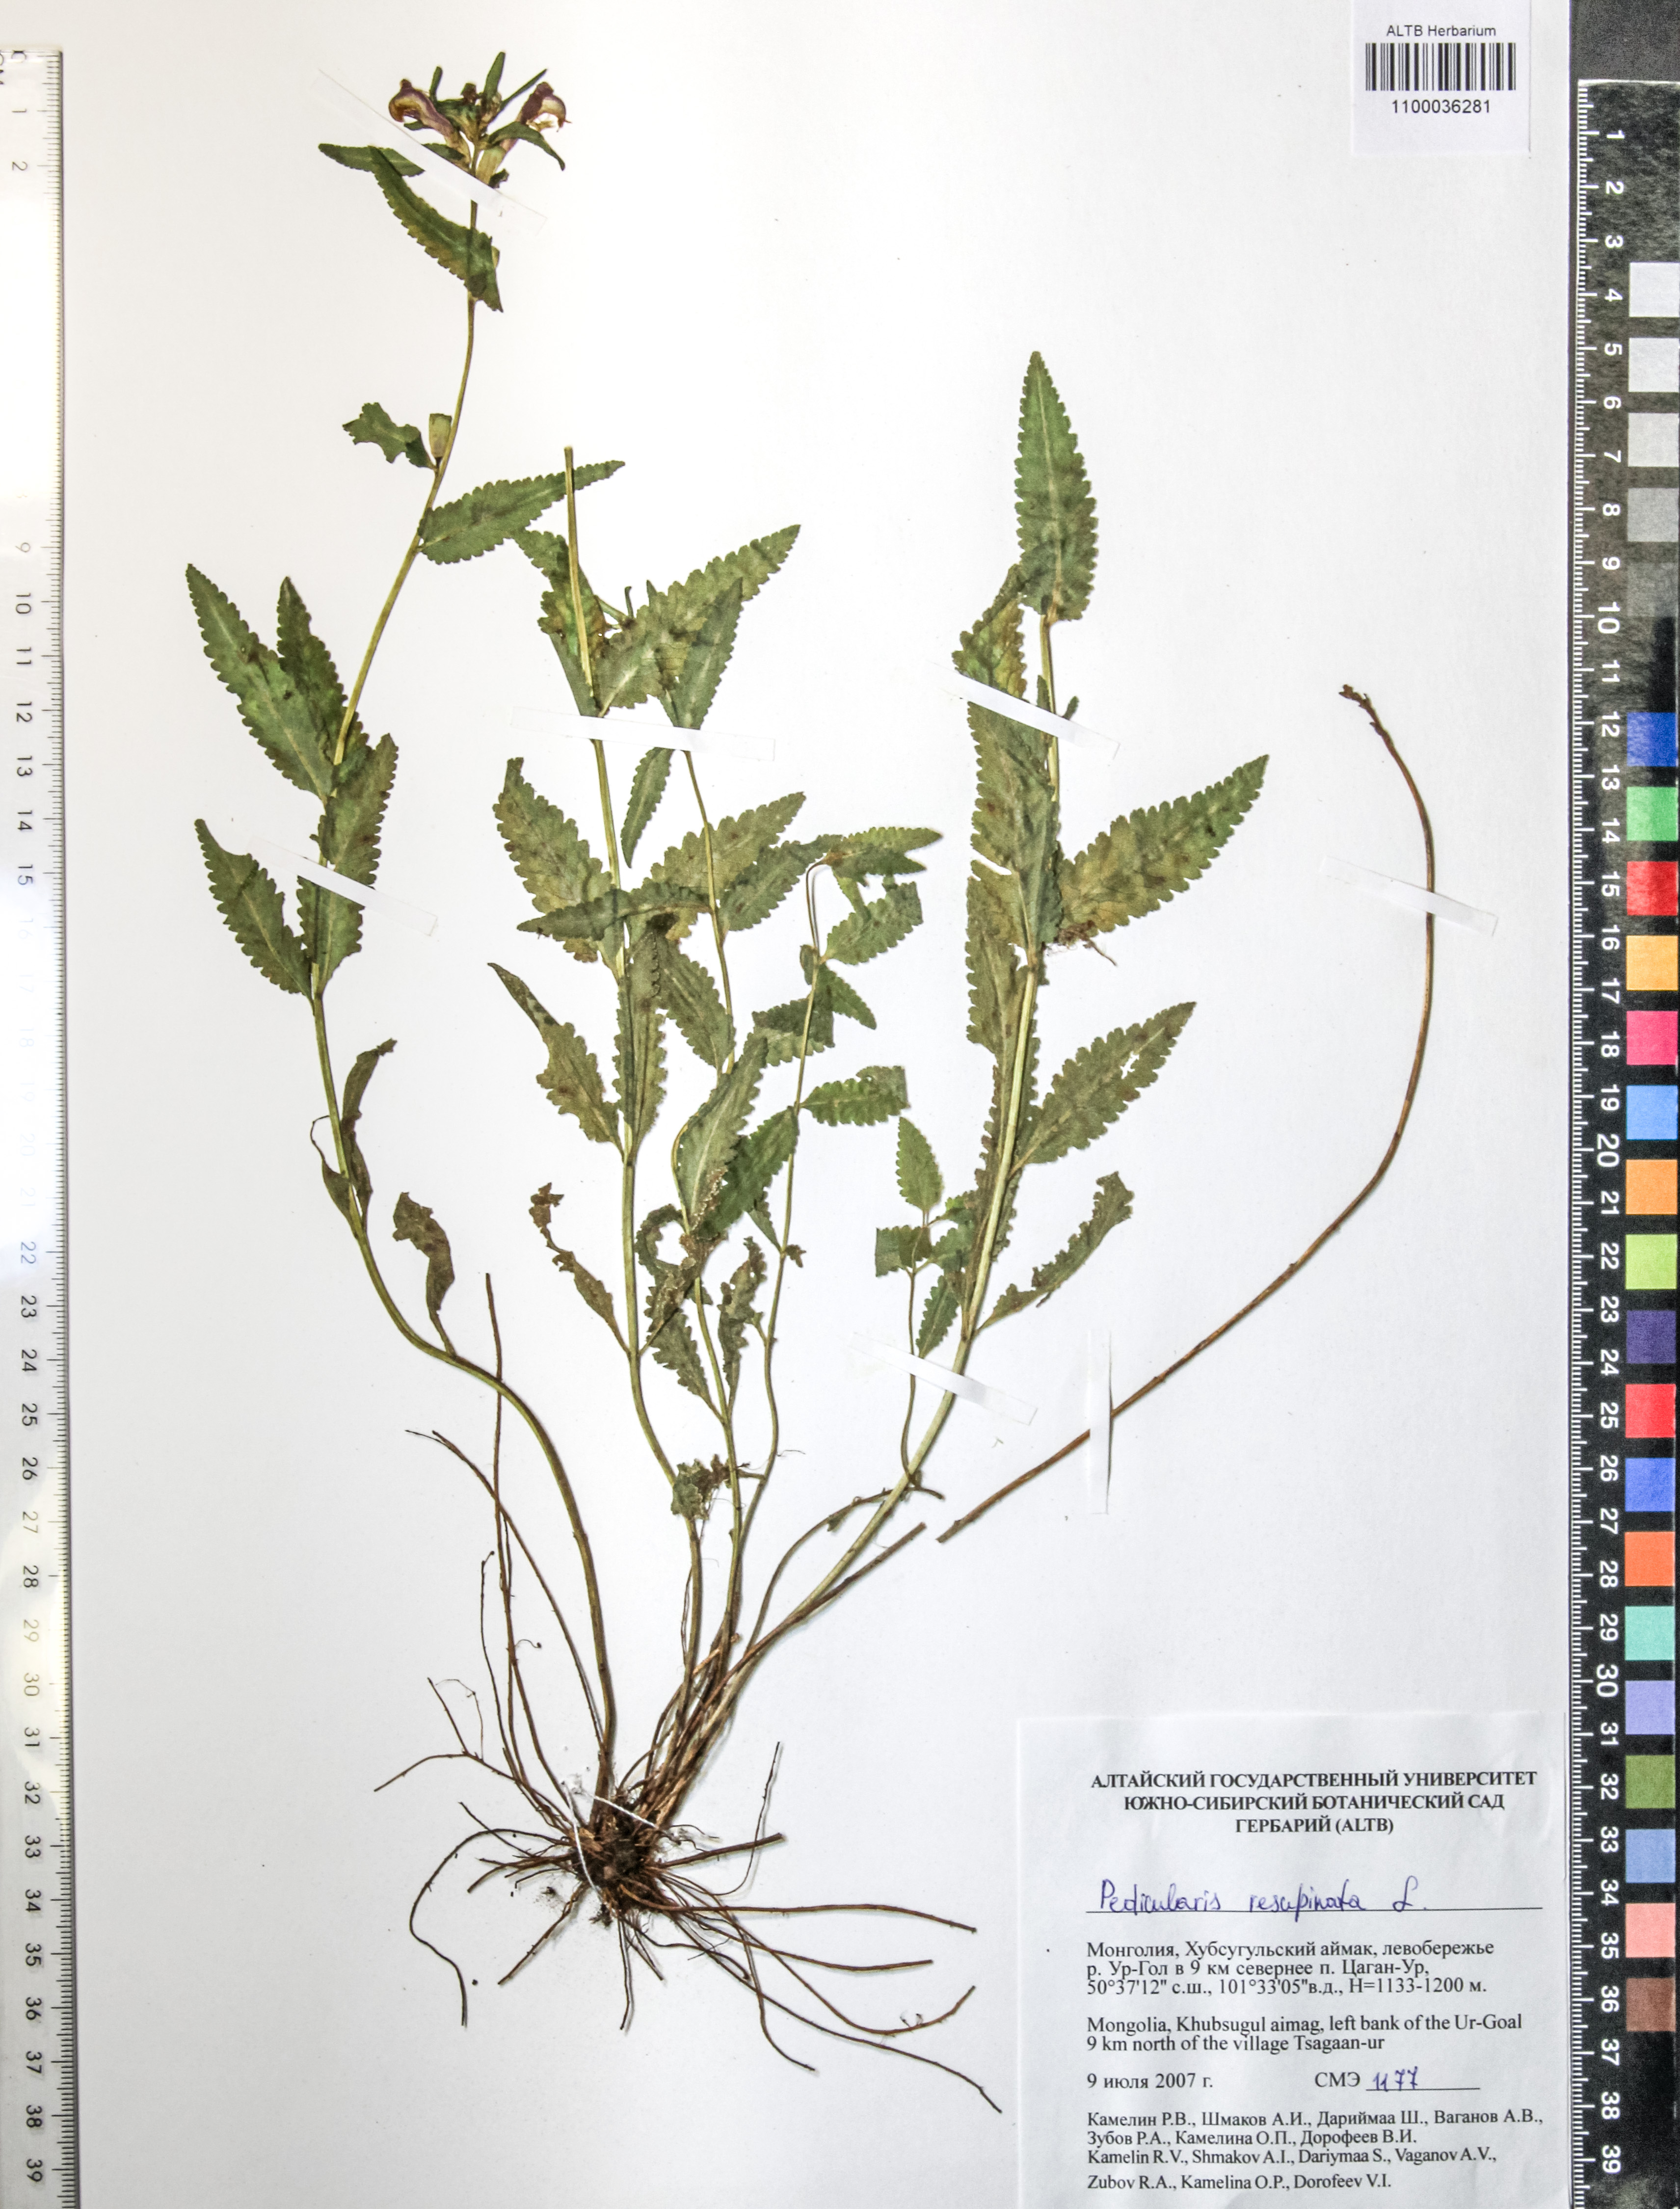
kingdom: Plantae
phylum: Tracheophyta
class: Magnoliopsida
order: Lamiales
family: Orobanchaceae
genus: Pedicularis
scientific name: Pedicularis resupinata
